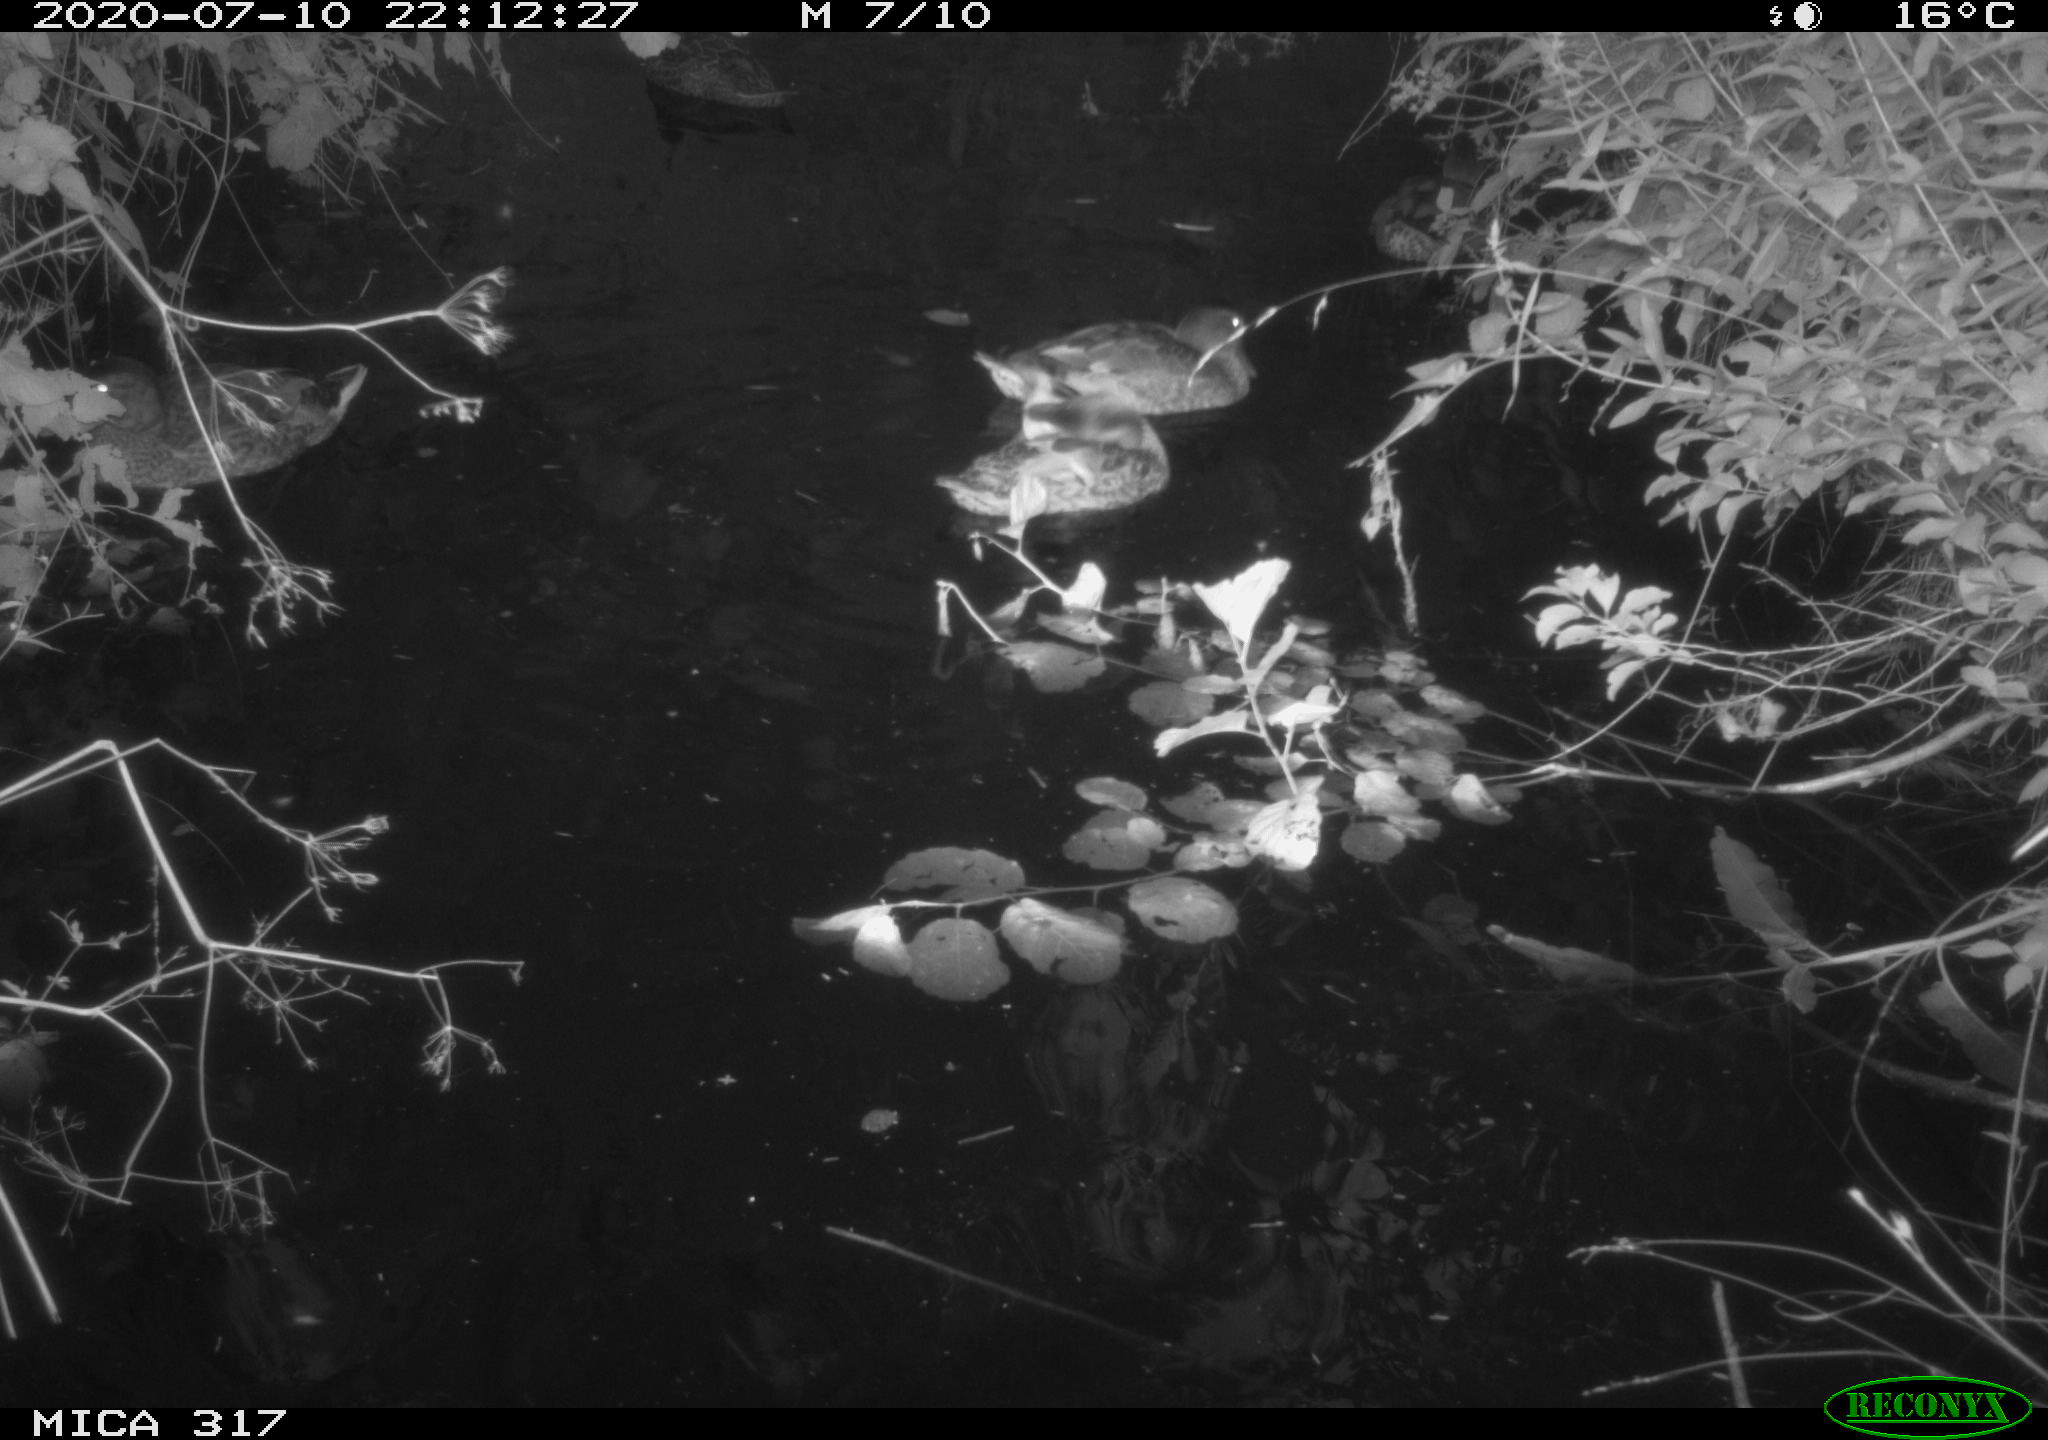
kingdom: Animalia
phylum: Chordata
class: Aves
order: Anseriformes
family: Anatidae
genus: Anas
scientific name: Anas platyrhynchos
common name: Mallard
